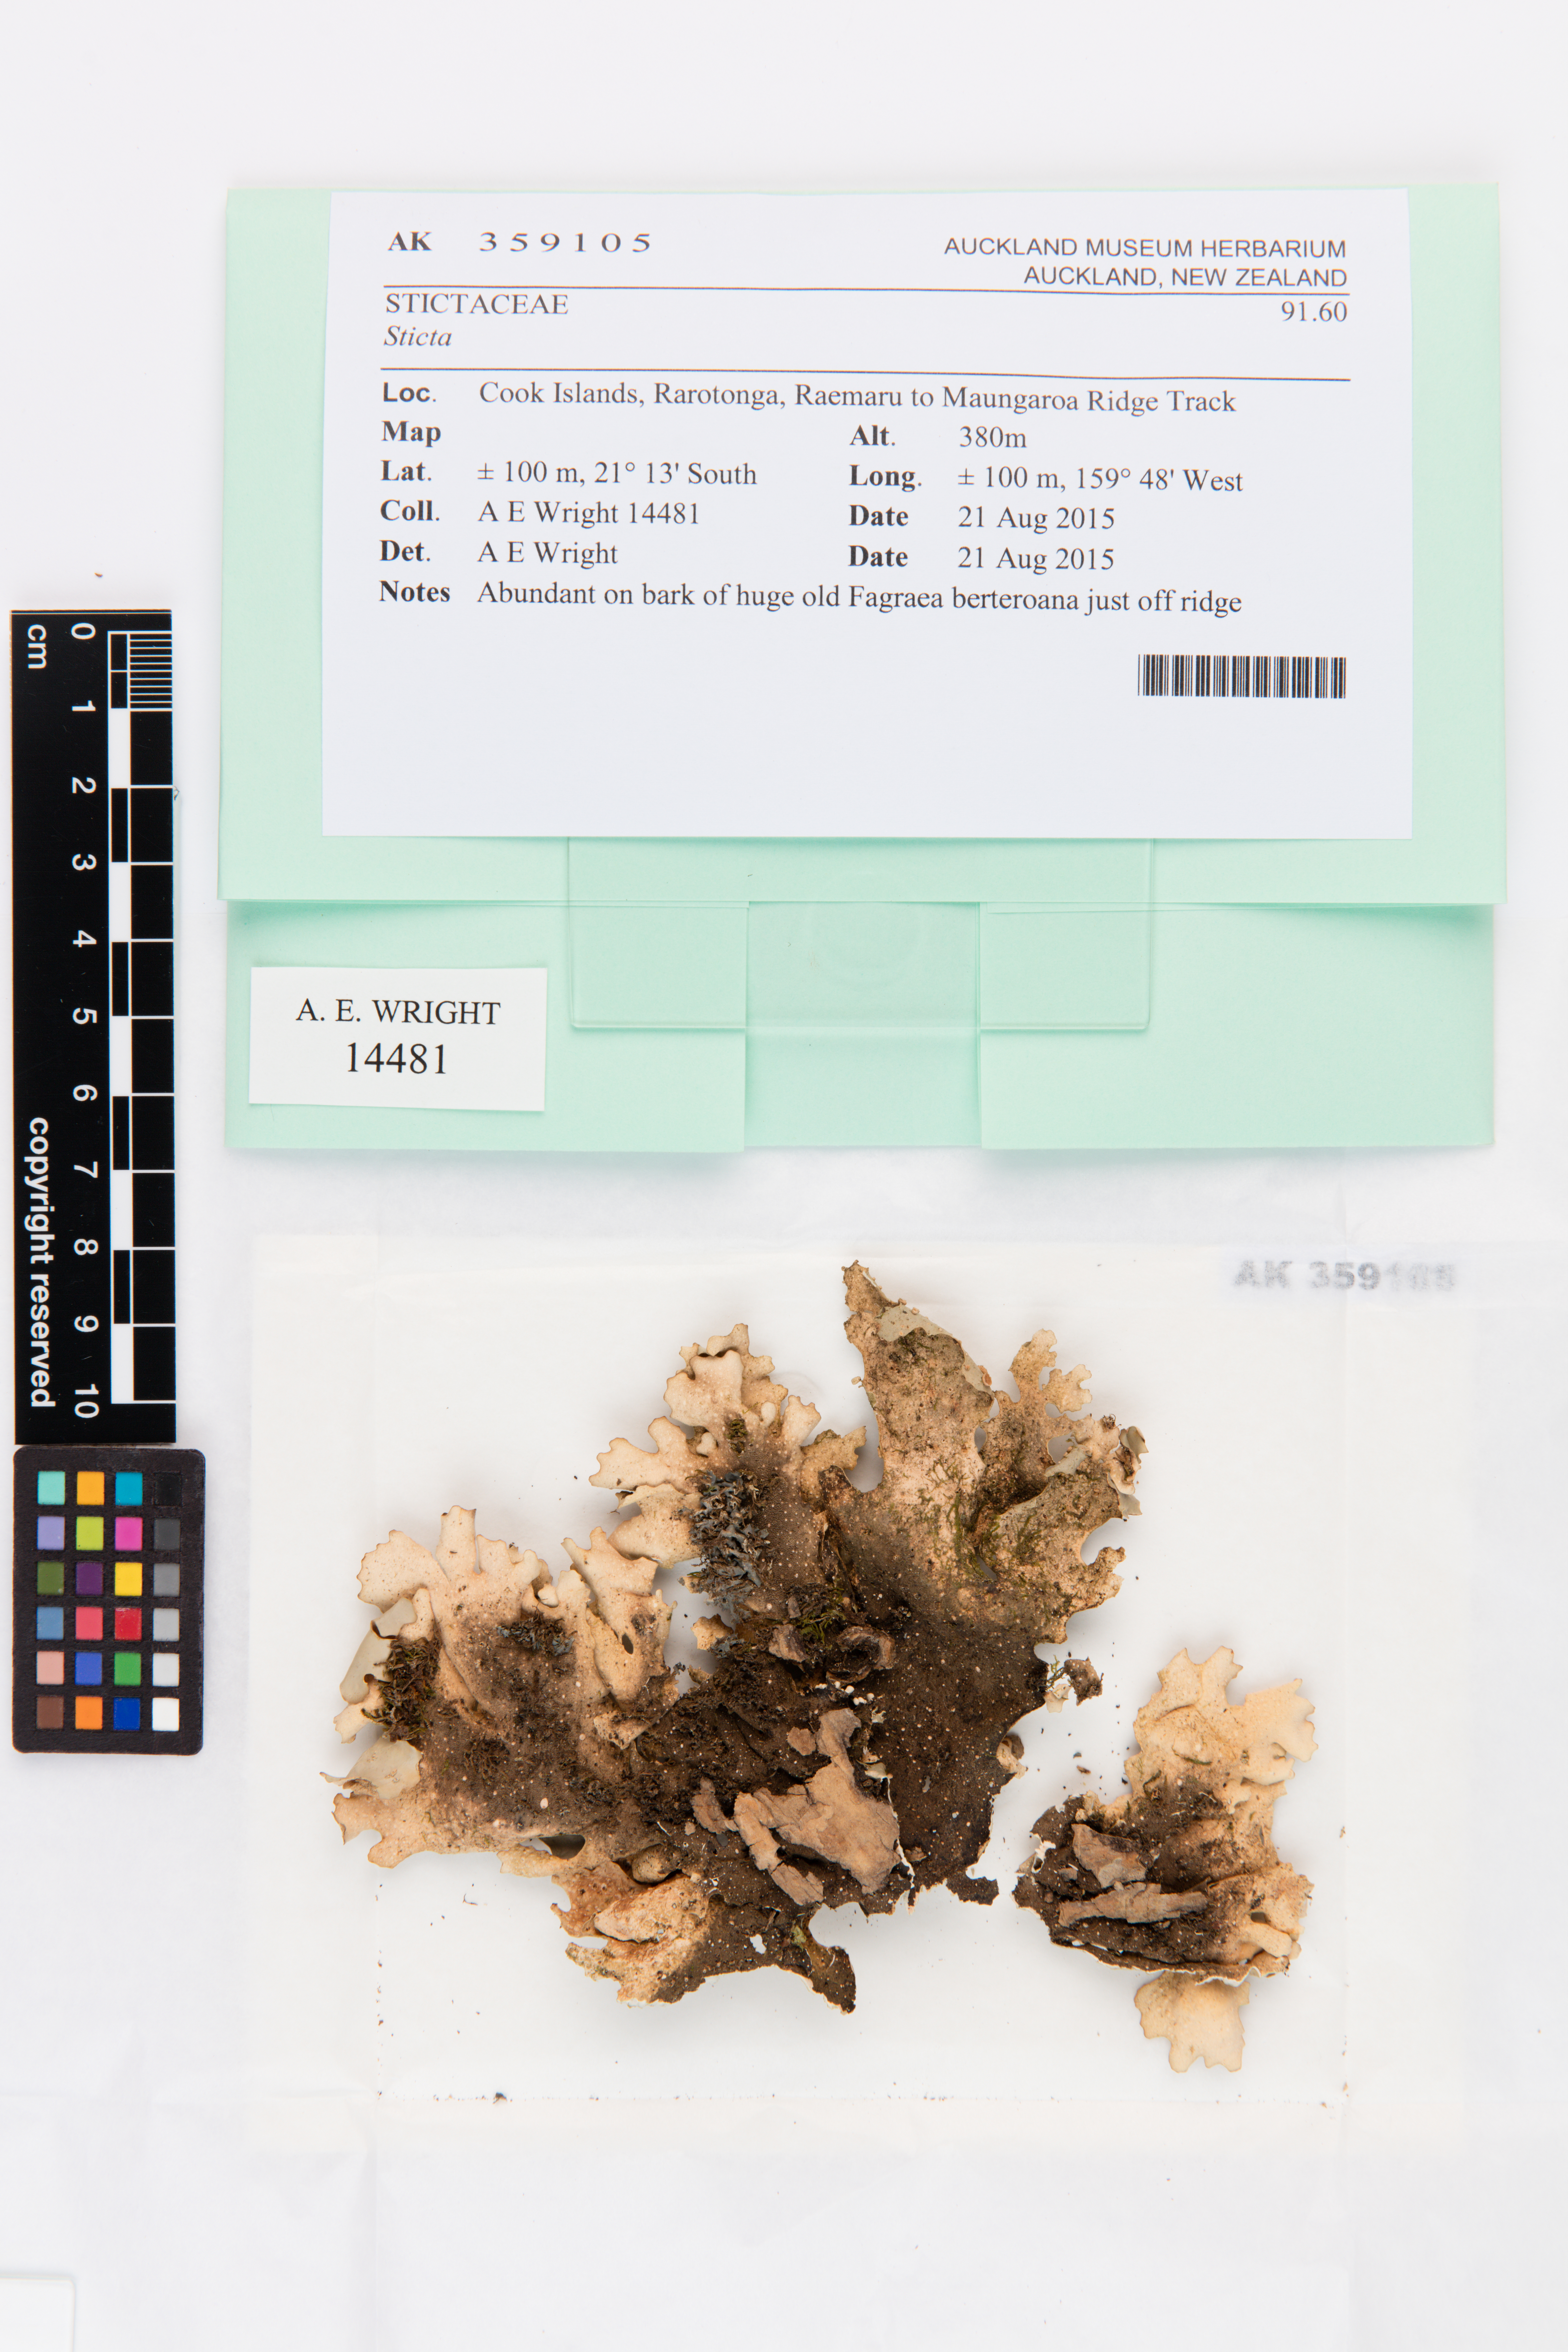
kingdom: Fungi
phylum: Ascomycota
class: Lecanoromycetes
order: Peltigerales
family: Lobariaceae
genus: Sticta
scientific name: Sticta
